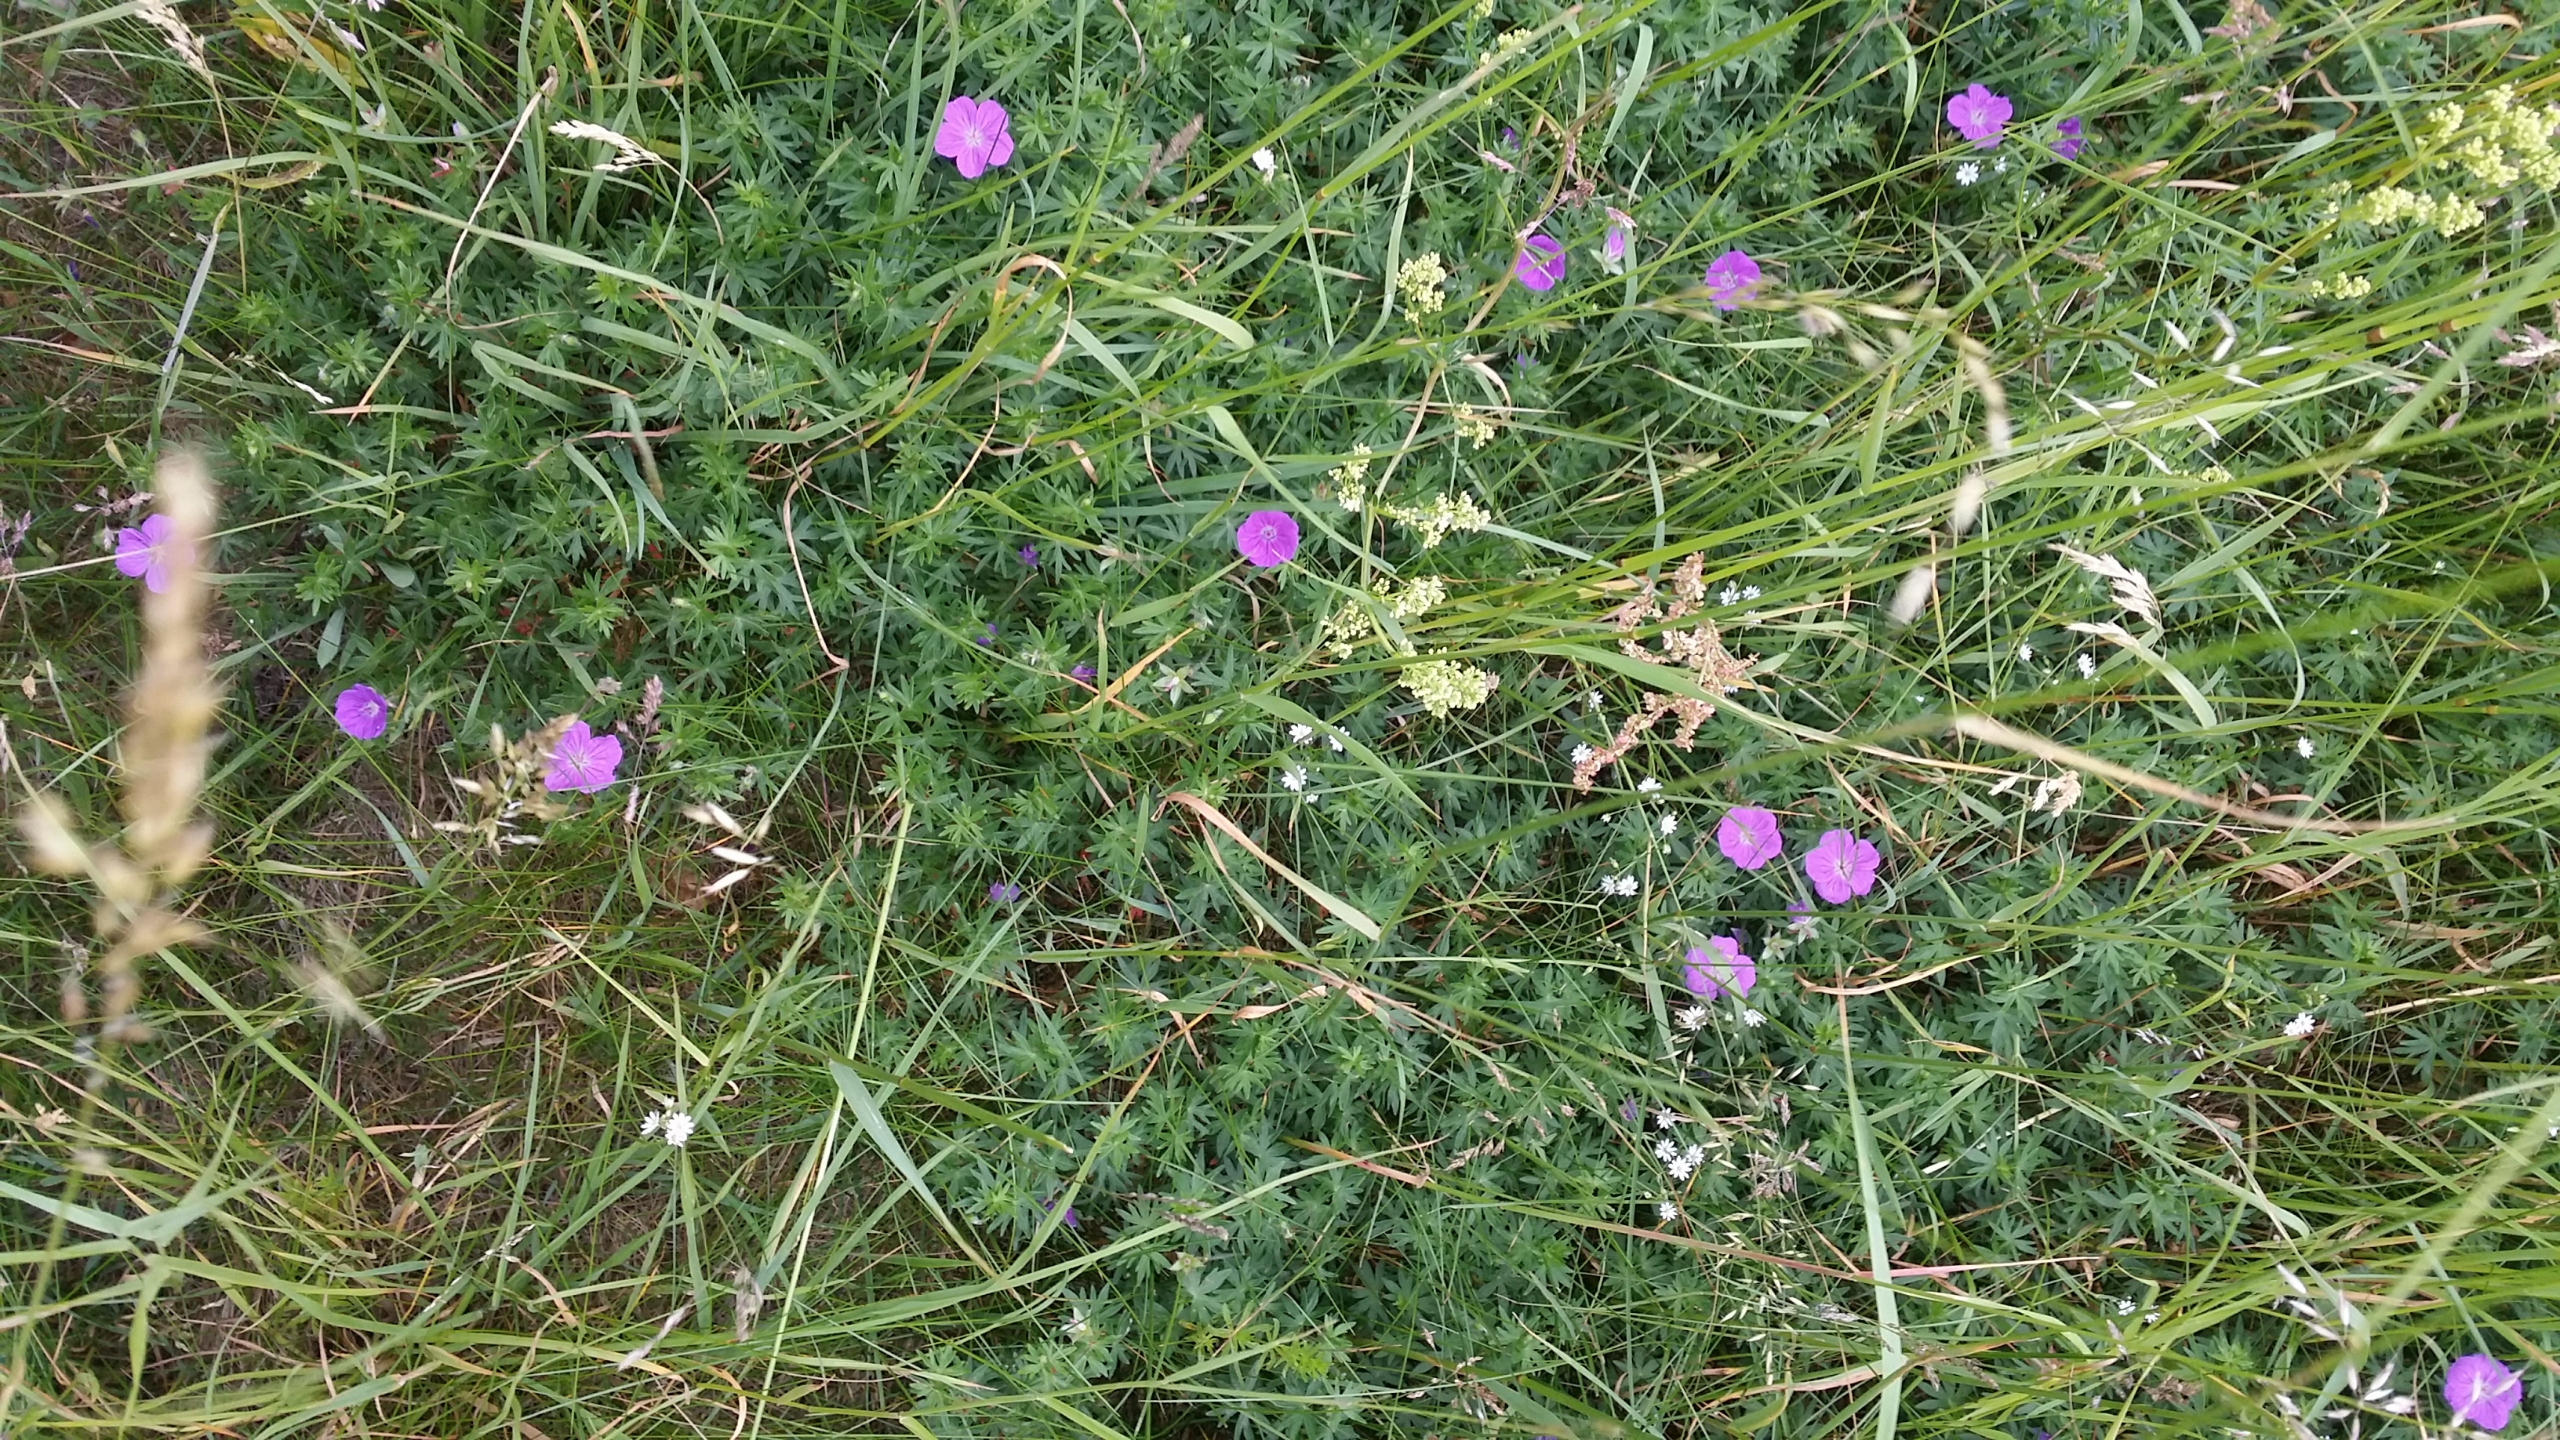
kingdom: Plantae
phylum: Tracheophyta
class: Magnoliopsida
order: Geraniales
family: Geraniaceae
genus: Geranium
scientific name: Geranium sanguineum
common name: Blodrød storkenæb
